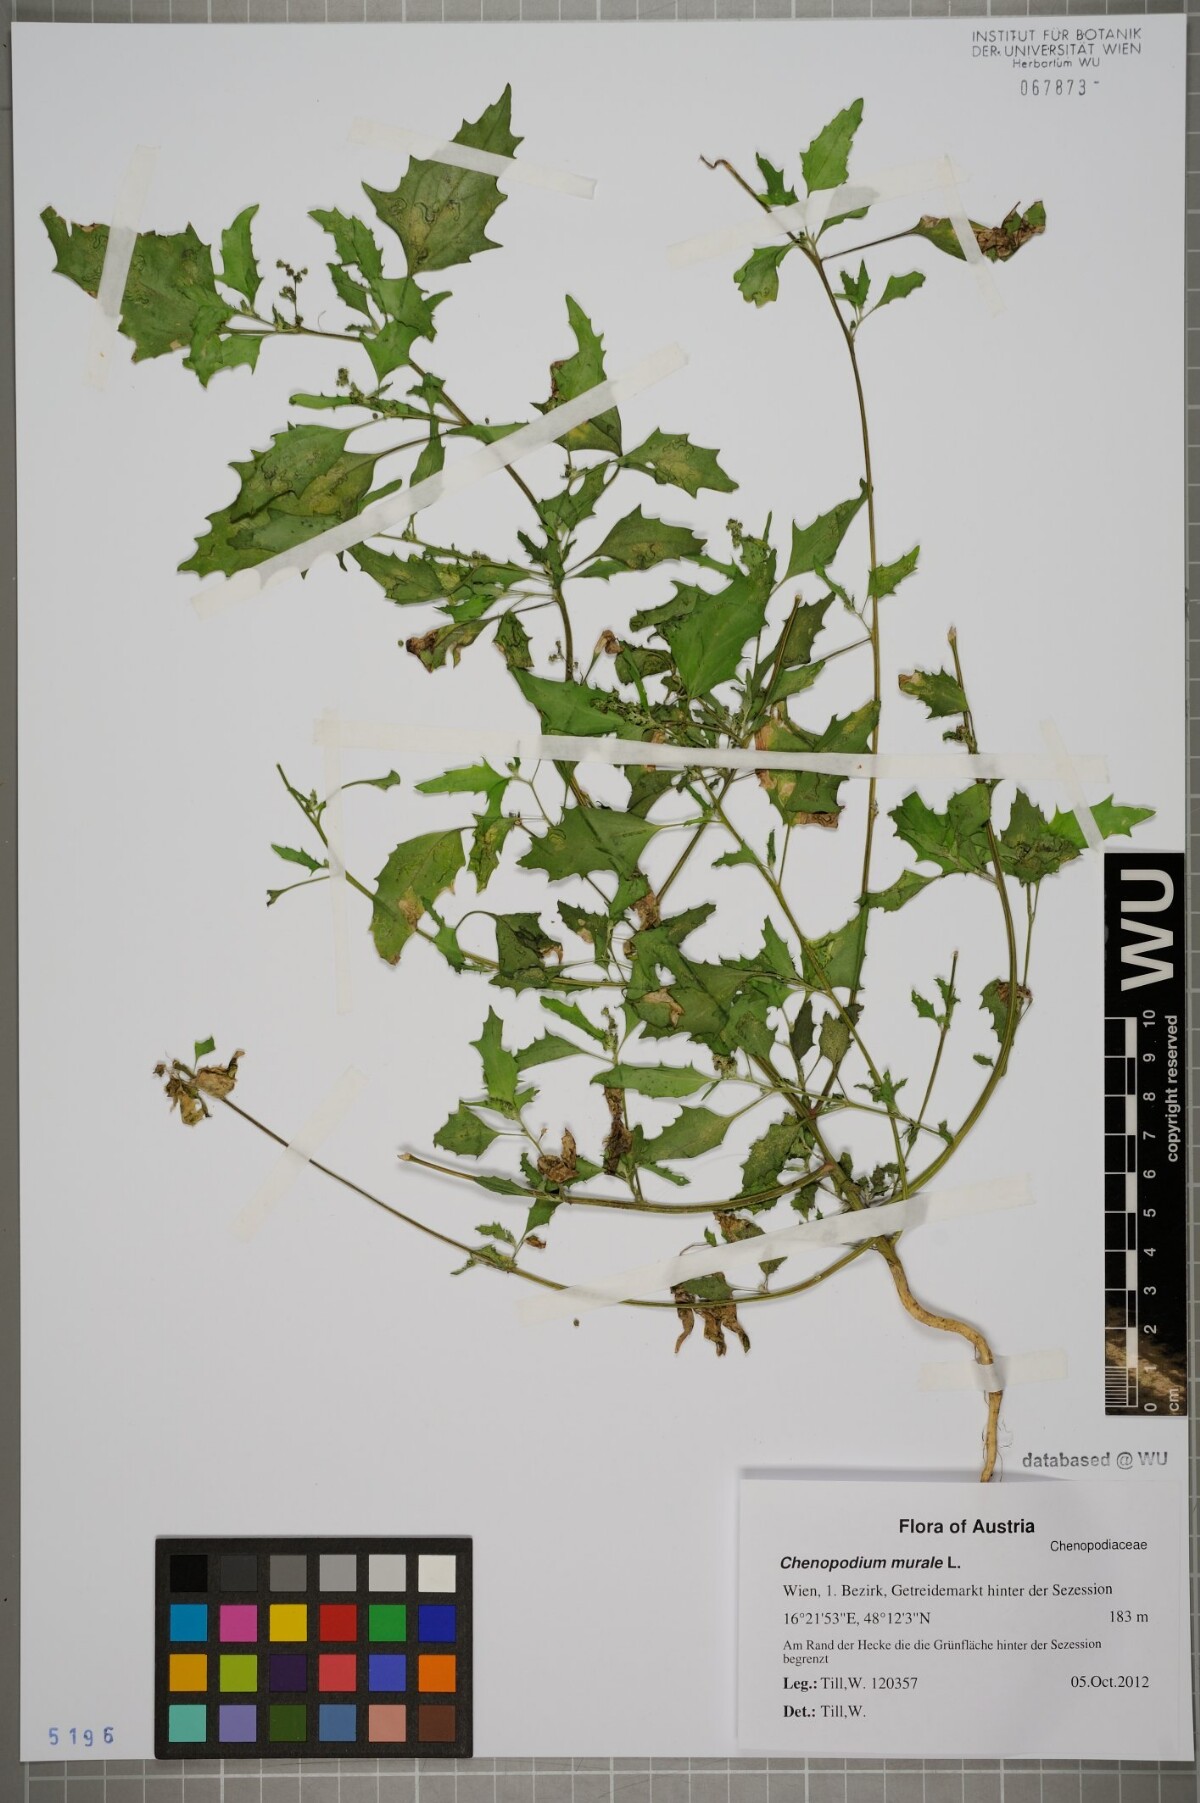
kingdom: Plantae
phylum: Tracheophyta
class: Magnoliopsida
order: Caryophyllales
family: Amaranthaceae
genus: Chenopodiastrum
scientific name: Chenopodiastrum murale
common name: Sowbane
